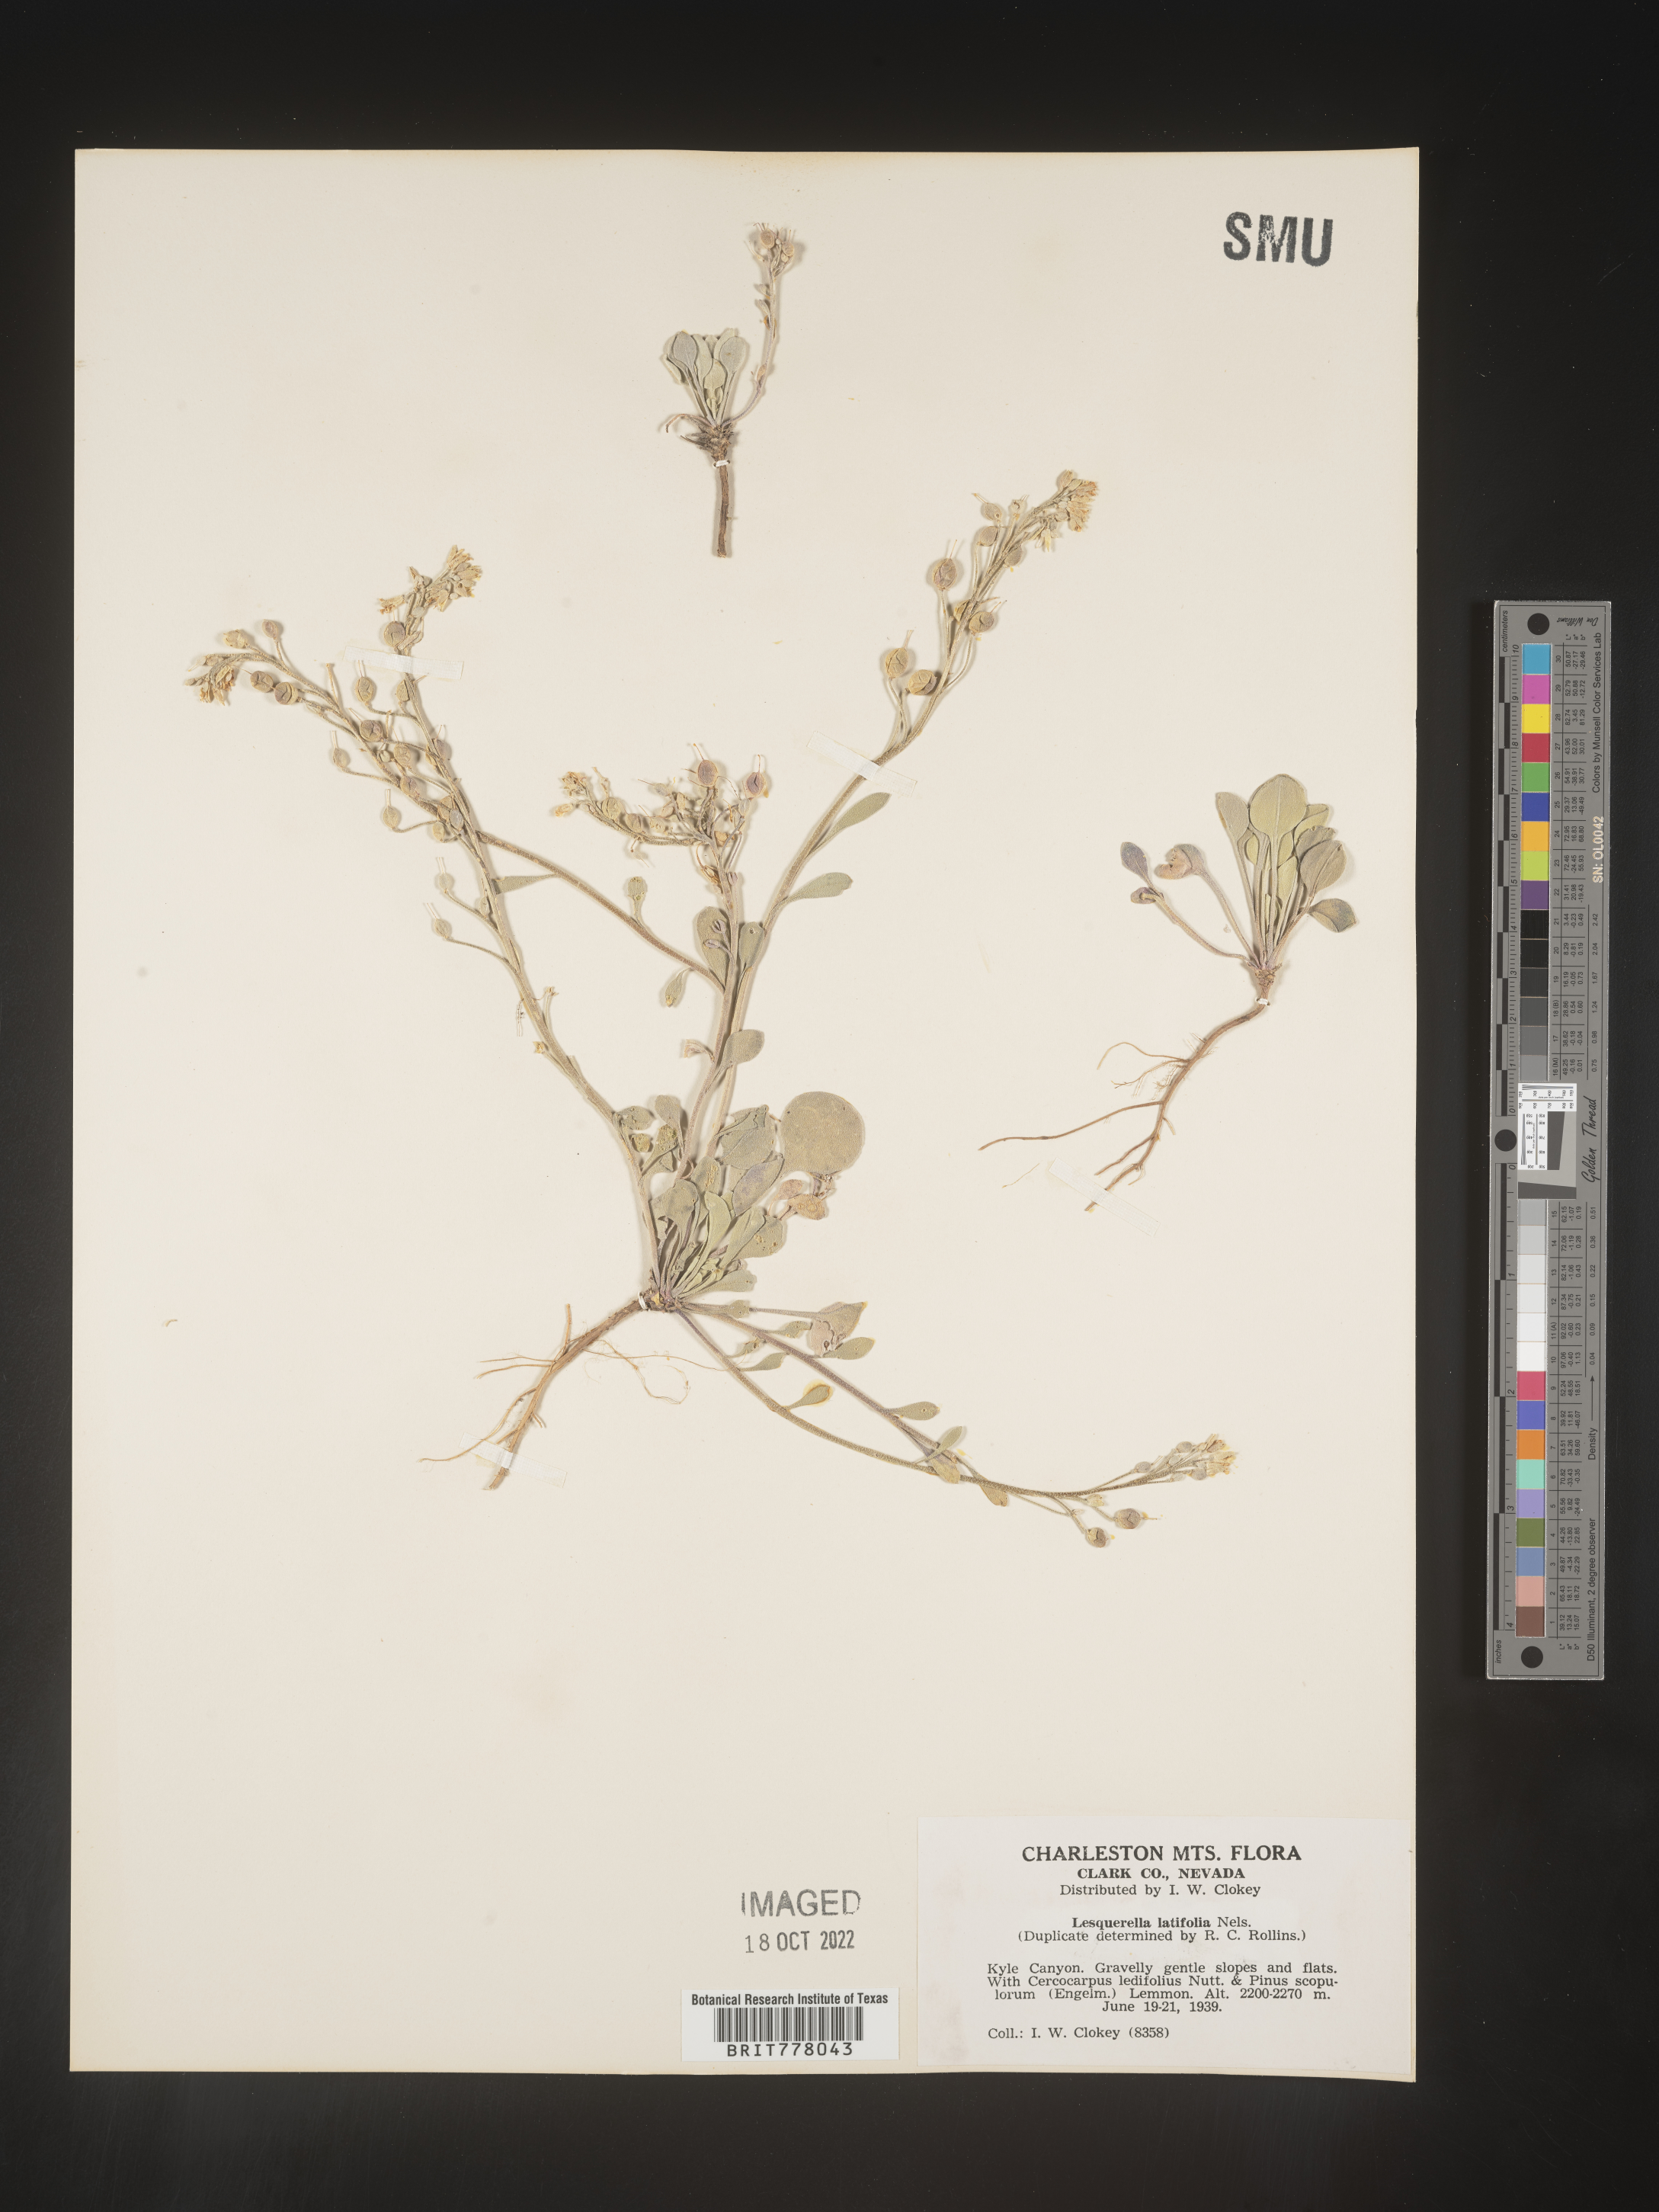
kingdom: Chromista
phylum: Cercozoa
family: Psammonobiotidae
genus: Lesquerella
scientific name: Lesquerella
